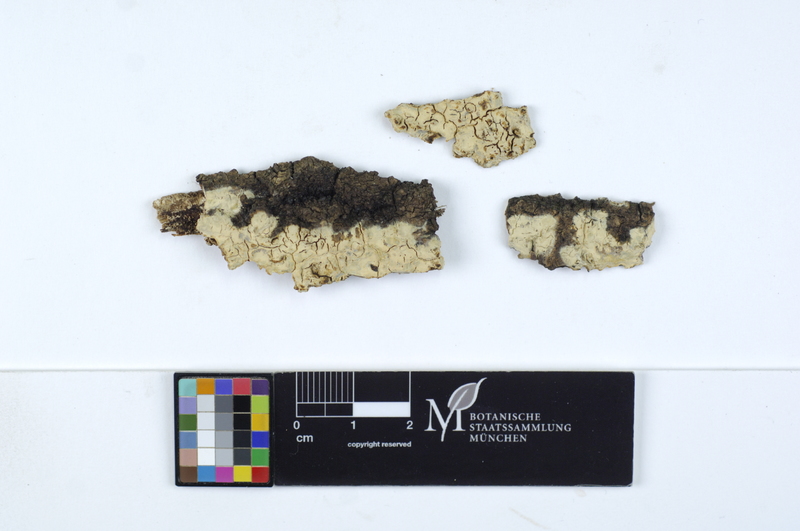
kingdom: Fungi
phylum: Basidiomycota
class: Agaricomycetes
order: Russulales
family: Stereaceae
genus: Gloeocystidiellum
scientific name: Gloeocystidiellum porosum
